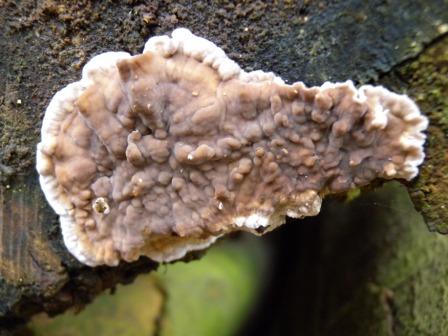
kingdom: Fungi
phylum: Basidiomycota
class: Agaricomycetes
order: Russulales
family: Stereaceae
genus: Stereum
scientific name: Stereum rugosum
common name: rynket lædersvamp
